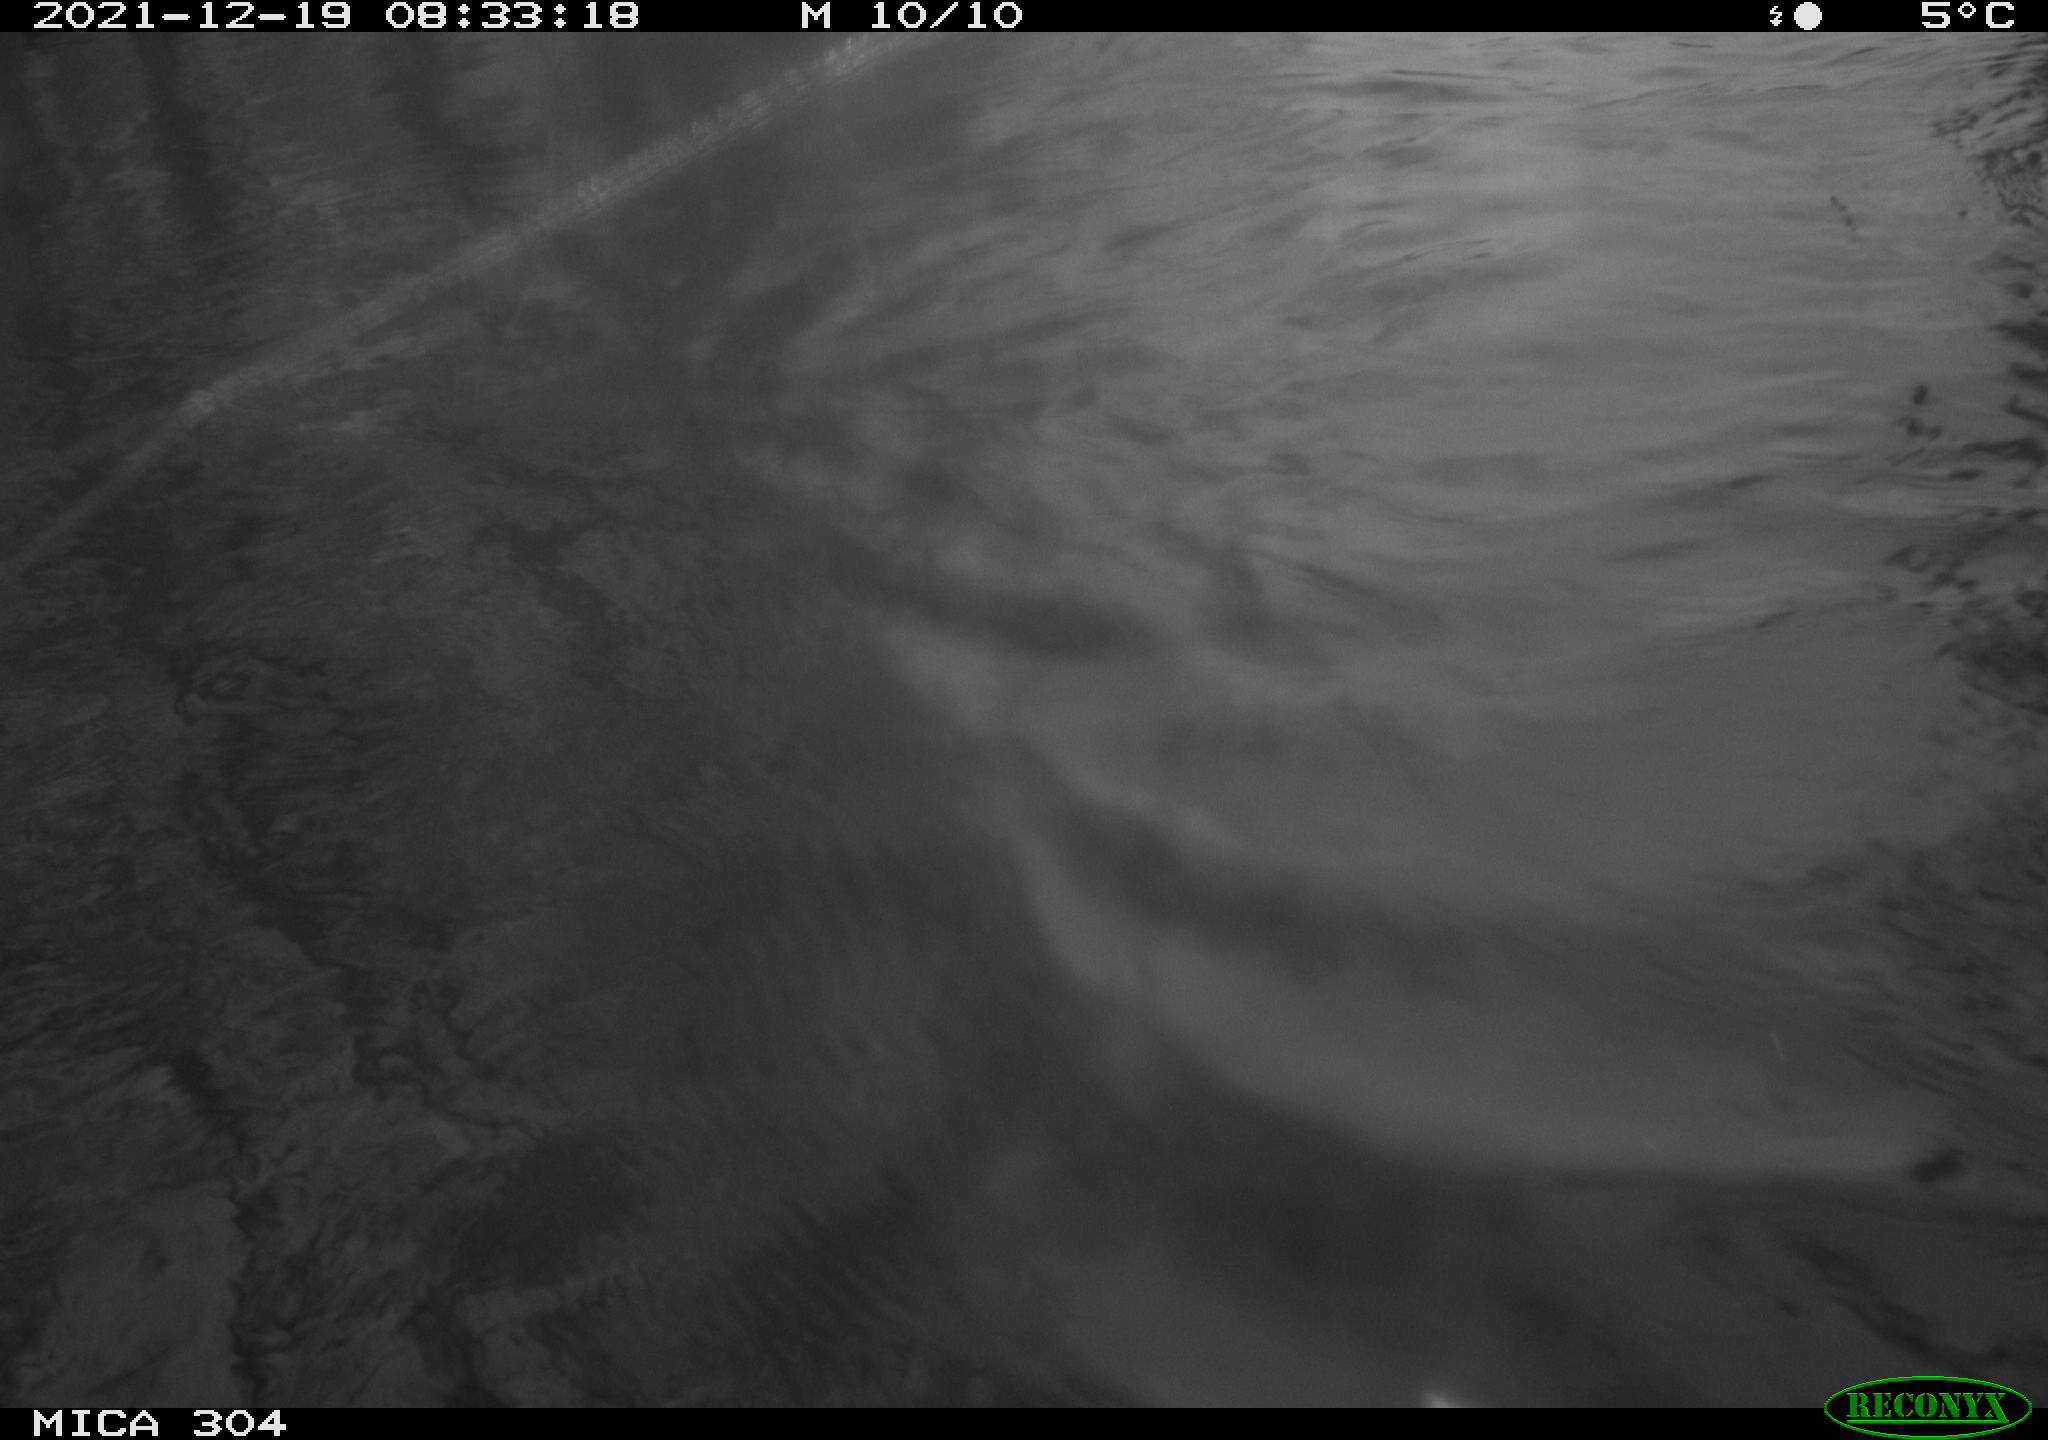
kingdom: Animalia
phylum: Chordata
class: Aves
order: Gruiformes
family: Rallidae
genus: Fulica
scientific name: Fulica atra
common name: Eurasian coot
